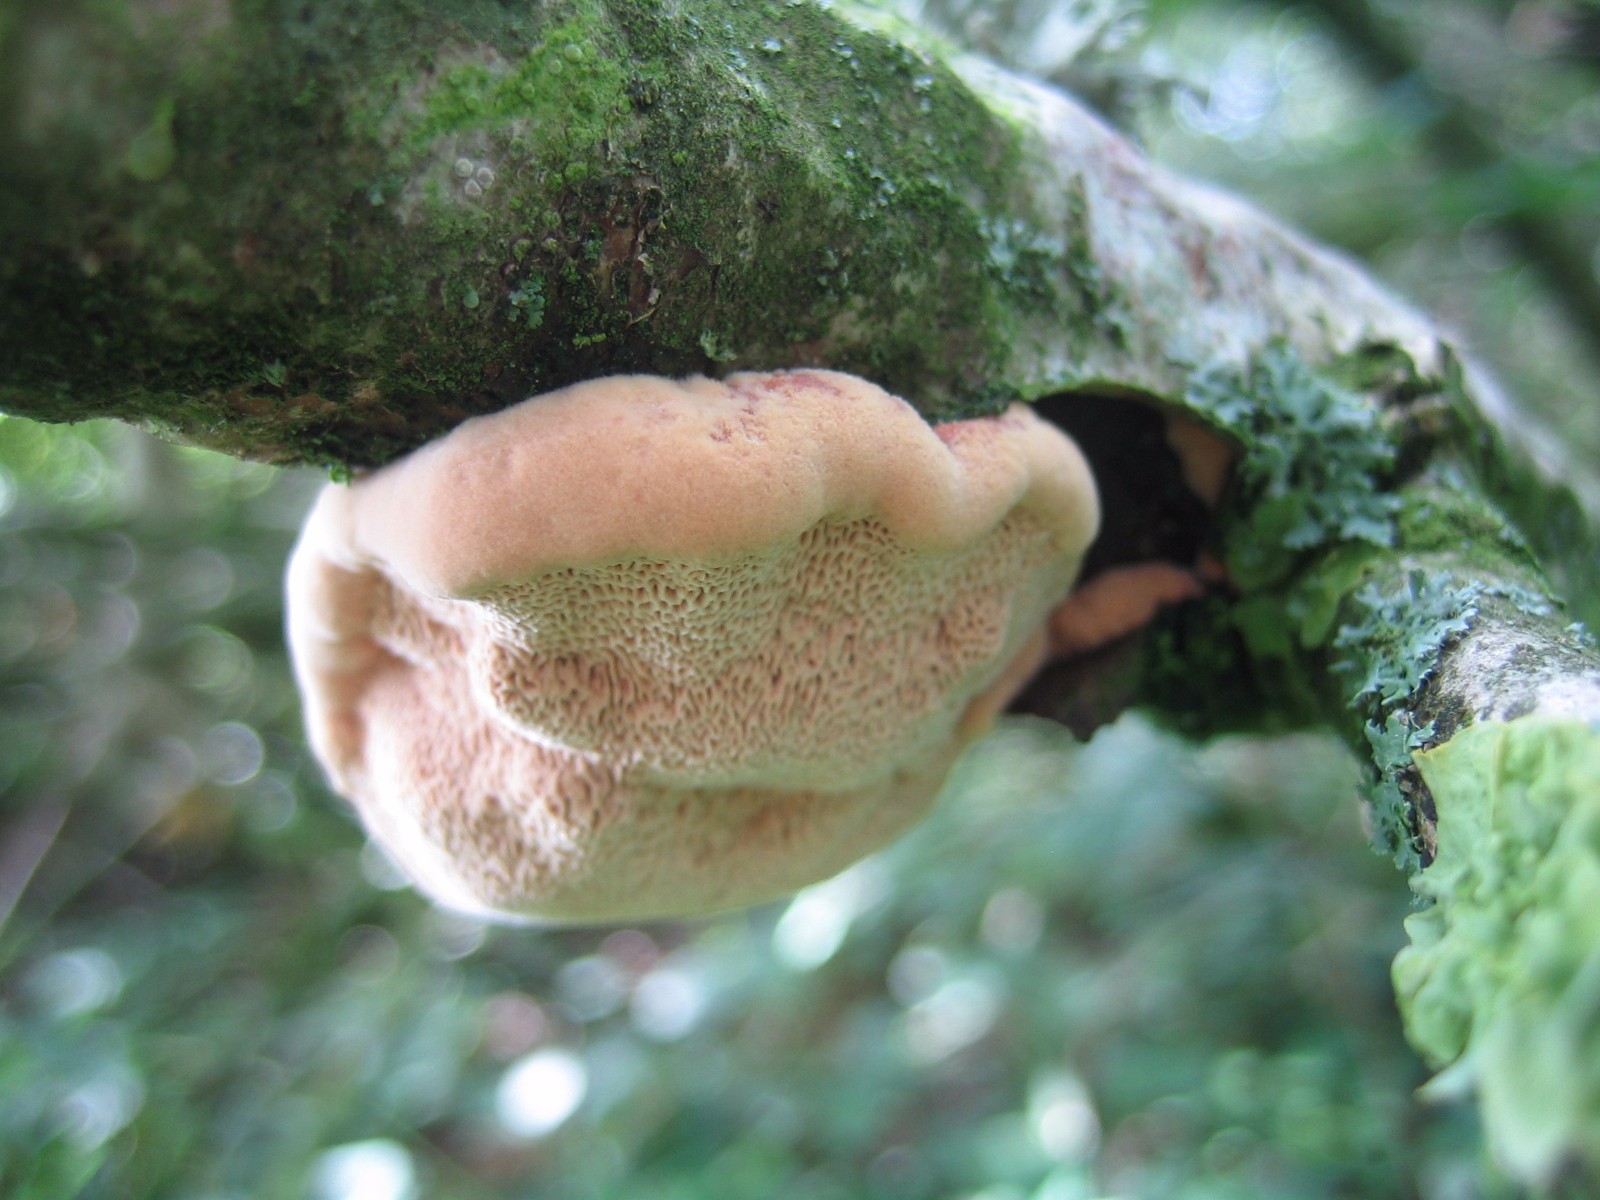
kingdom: Fungi
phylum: Basidiomycota
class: Agaricomycetes
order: Polyporales
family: Phanerochaetaceae
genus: Hapalopilus
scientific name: Hapalopilus rutilans
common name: rødlig okkerporesvamp
